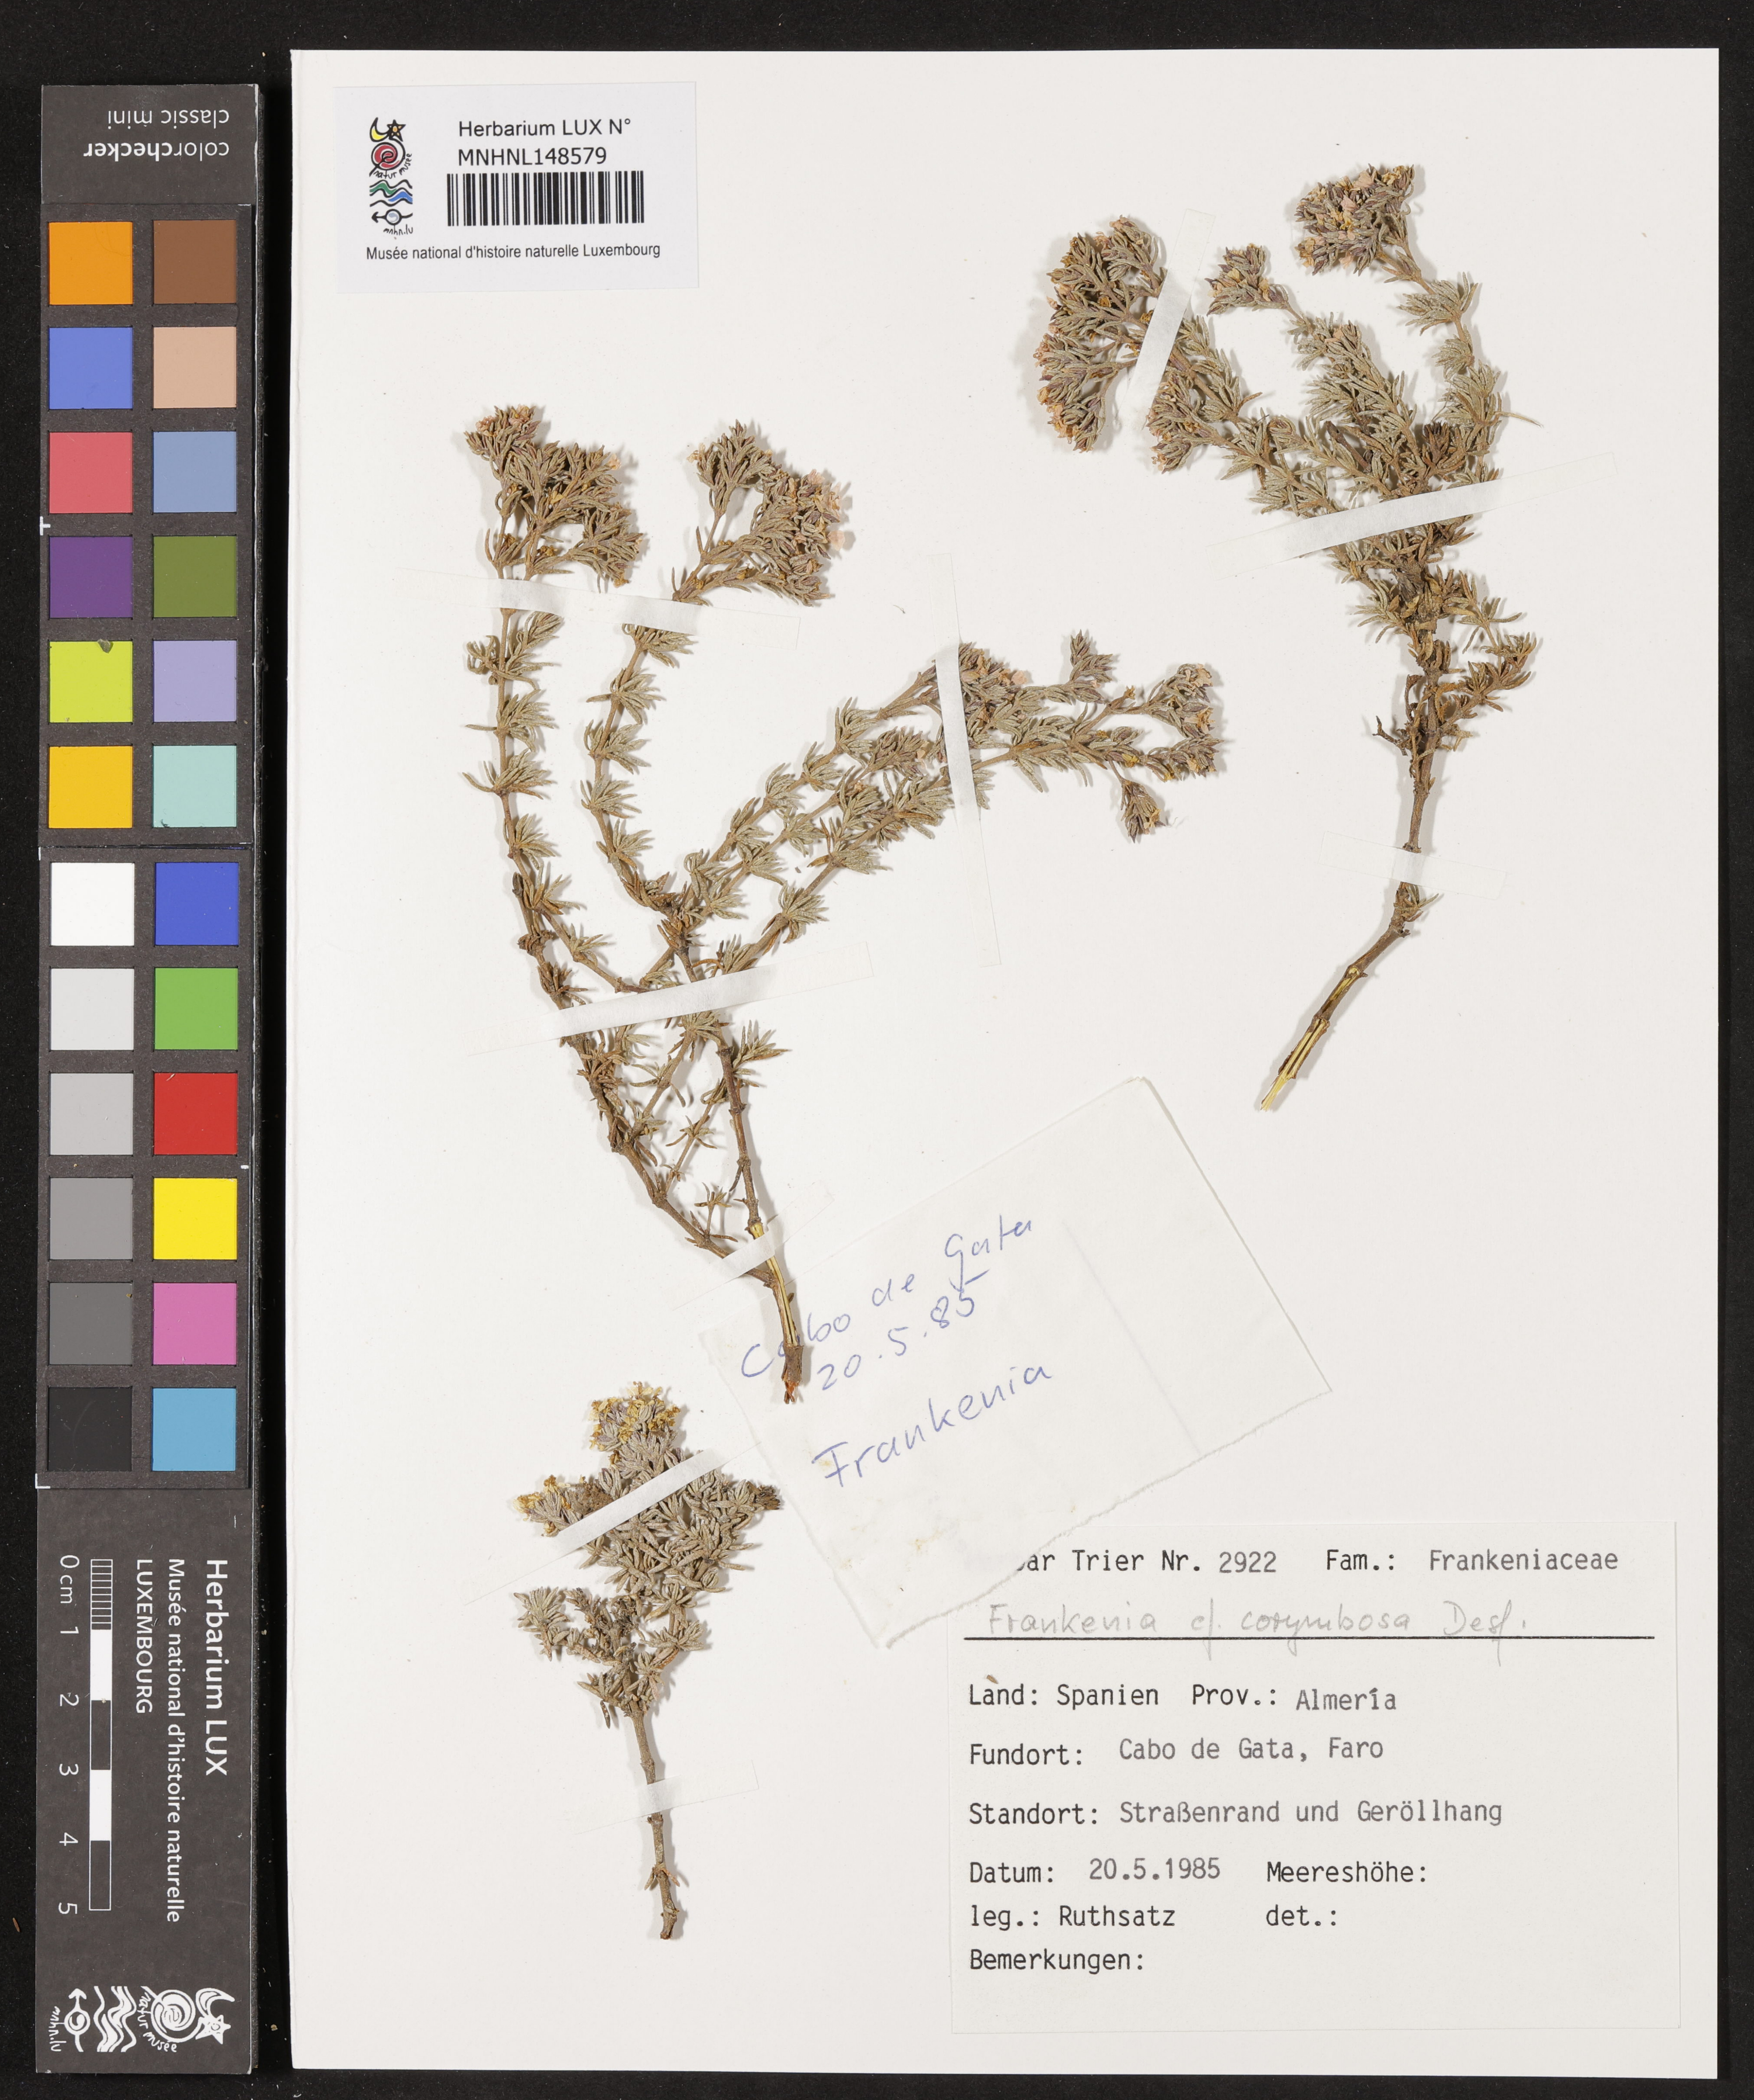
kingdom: Plantae
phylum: Tracheophyta
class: Magnoliopsida
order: Caryophyllales
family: Frankeniaceae
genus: Frankenia
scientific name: Frankenia corymbosa
